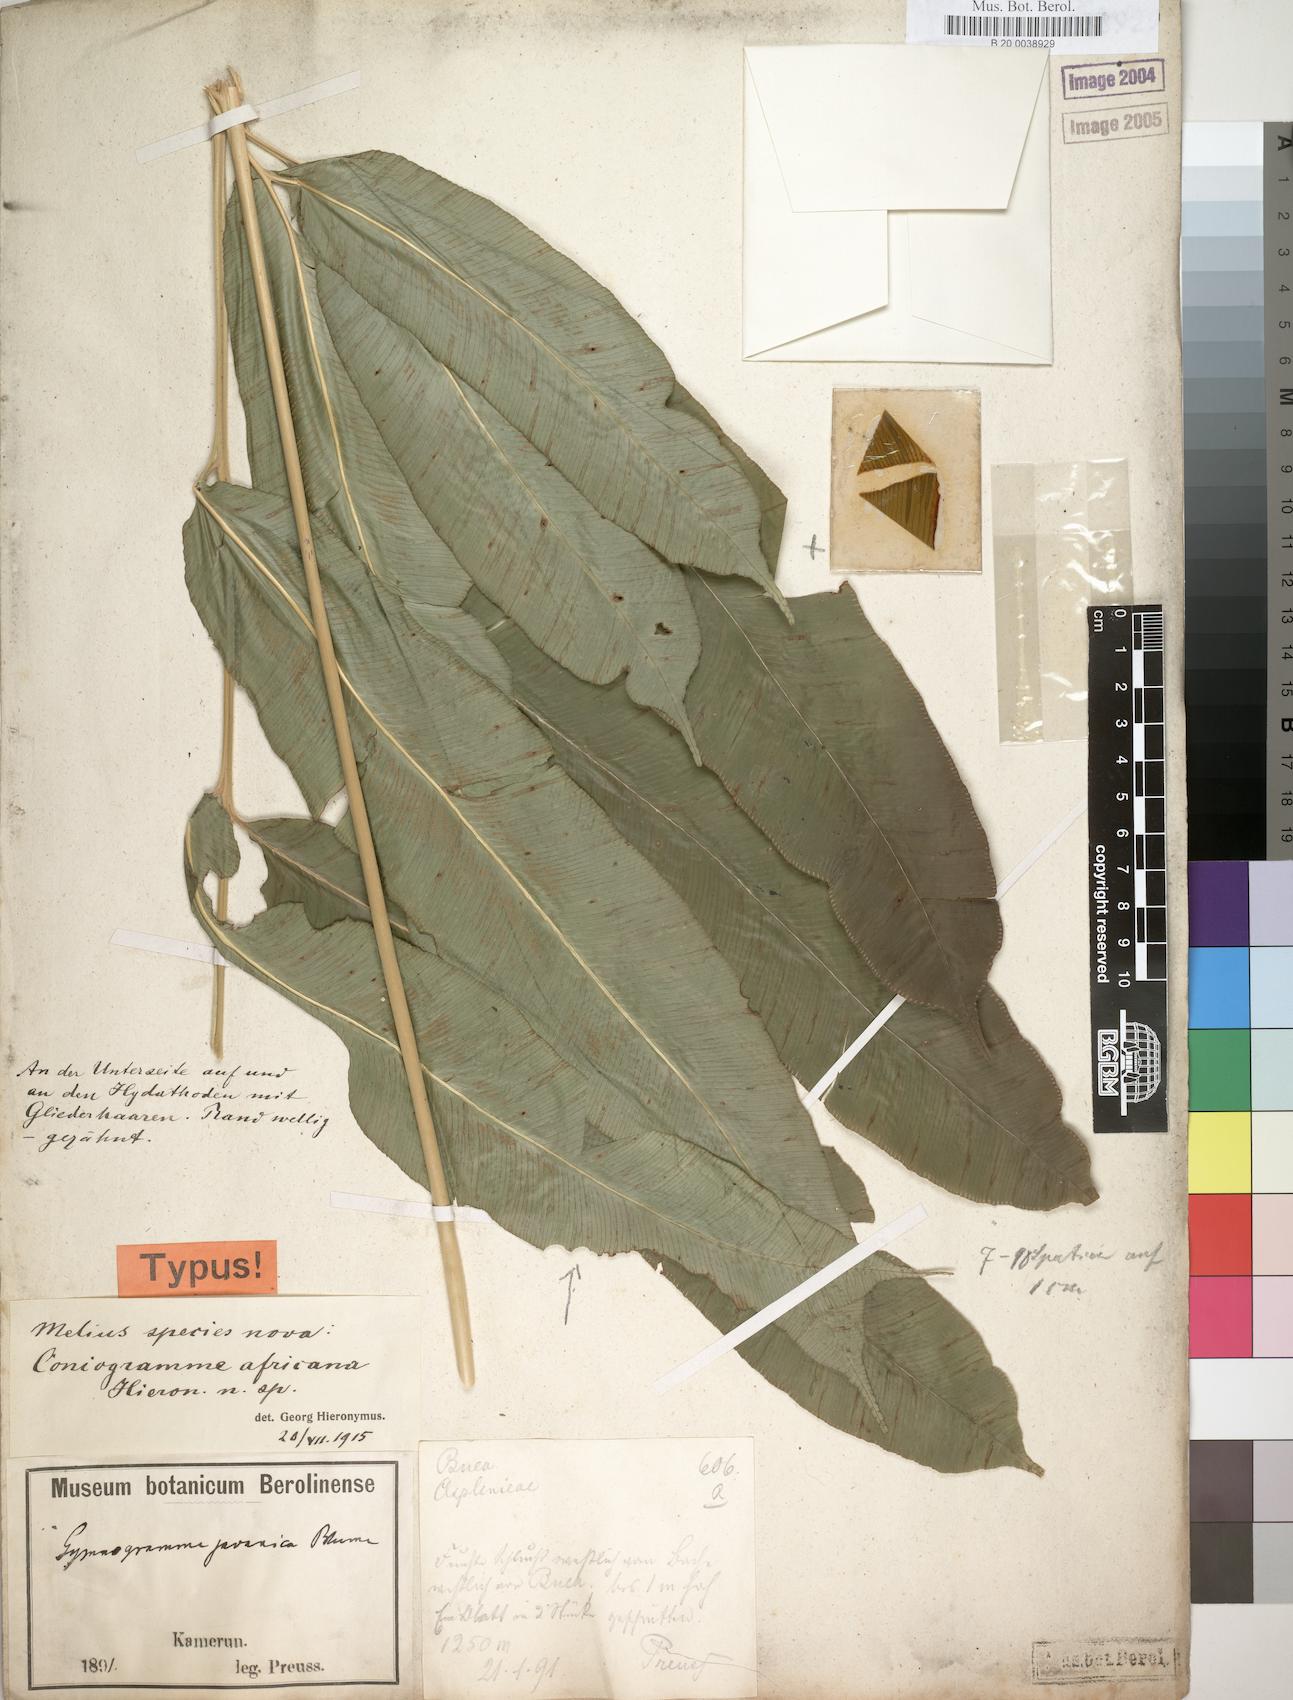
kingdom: Plantae
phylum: Tracheophyta
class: Polypodiopsida
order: Polypodiales
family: Pteridaceae
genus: Coniogramme
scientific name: Coniogramme africana
